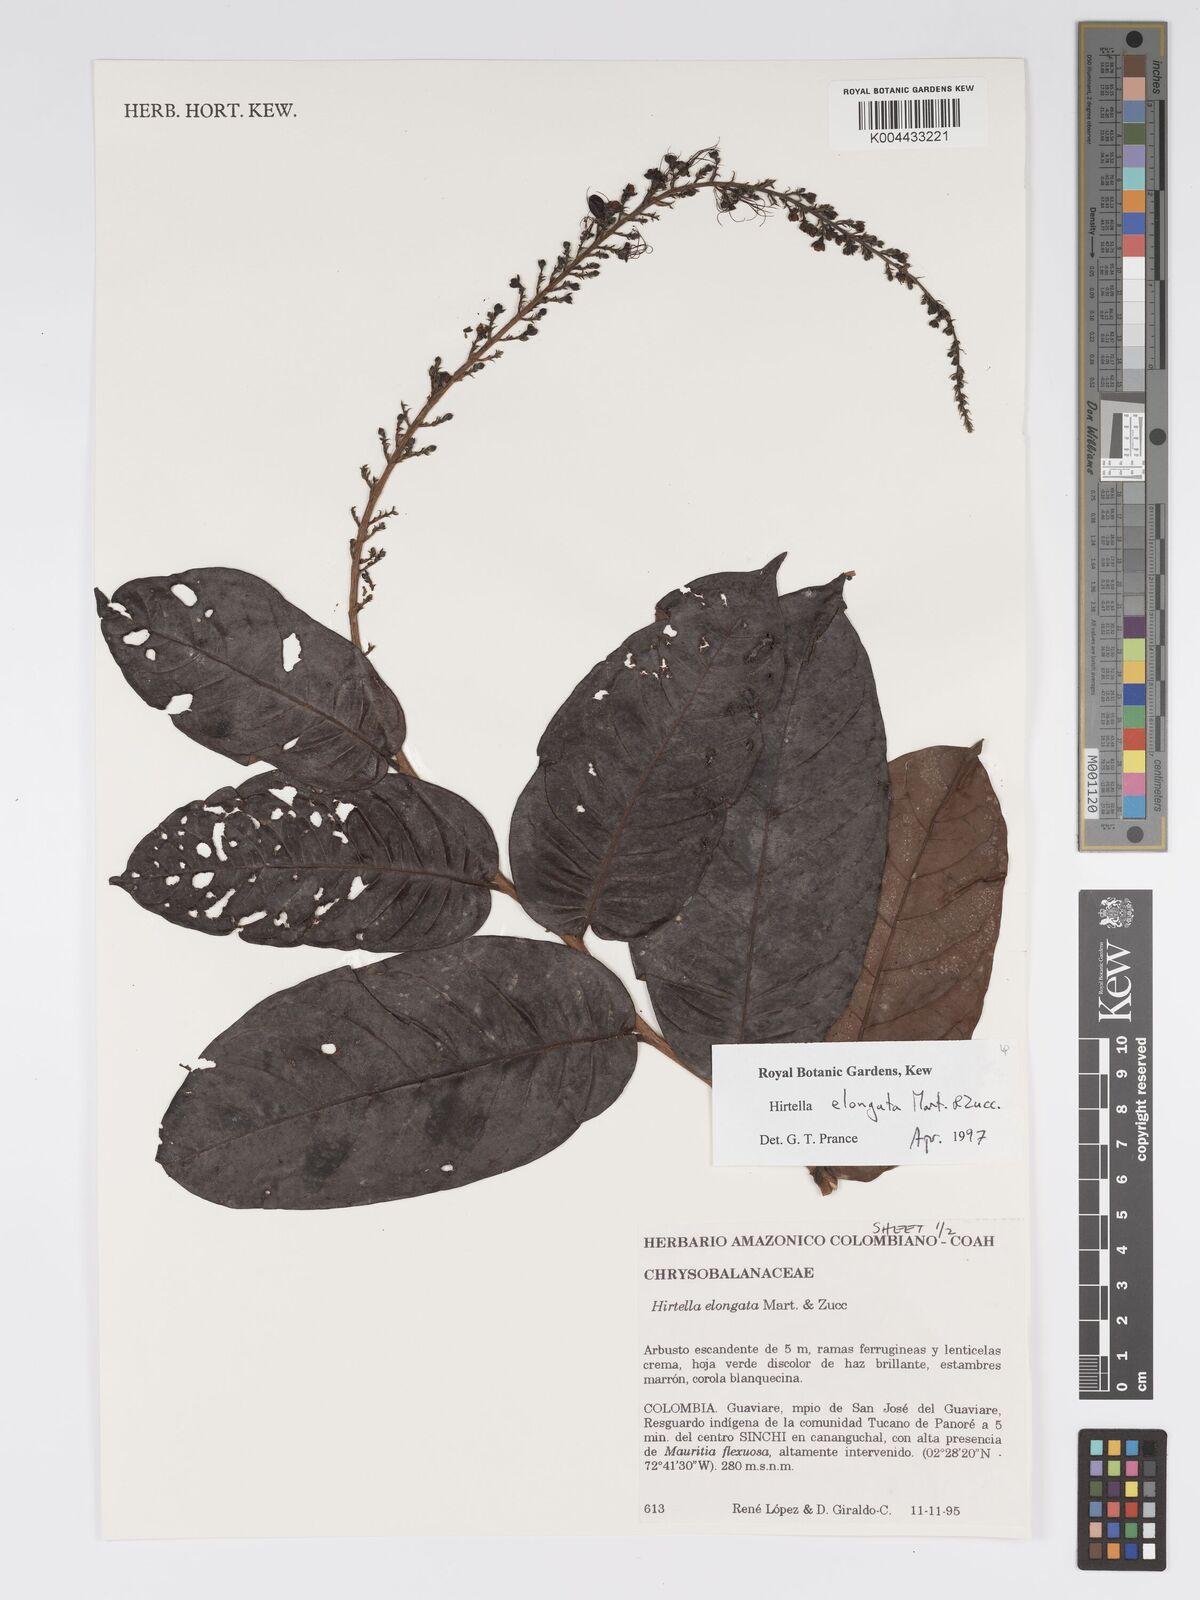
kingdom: Plantae
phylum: Tracheophyta
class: Magnoliopsida
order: Malpighiales
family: Chrysobalanaceae
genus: Hirtella
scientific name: Hirtella elongata
